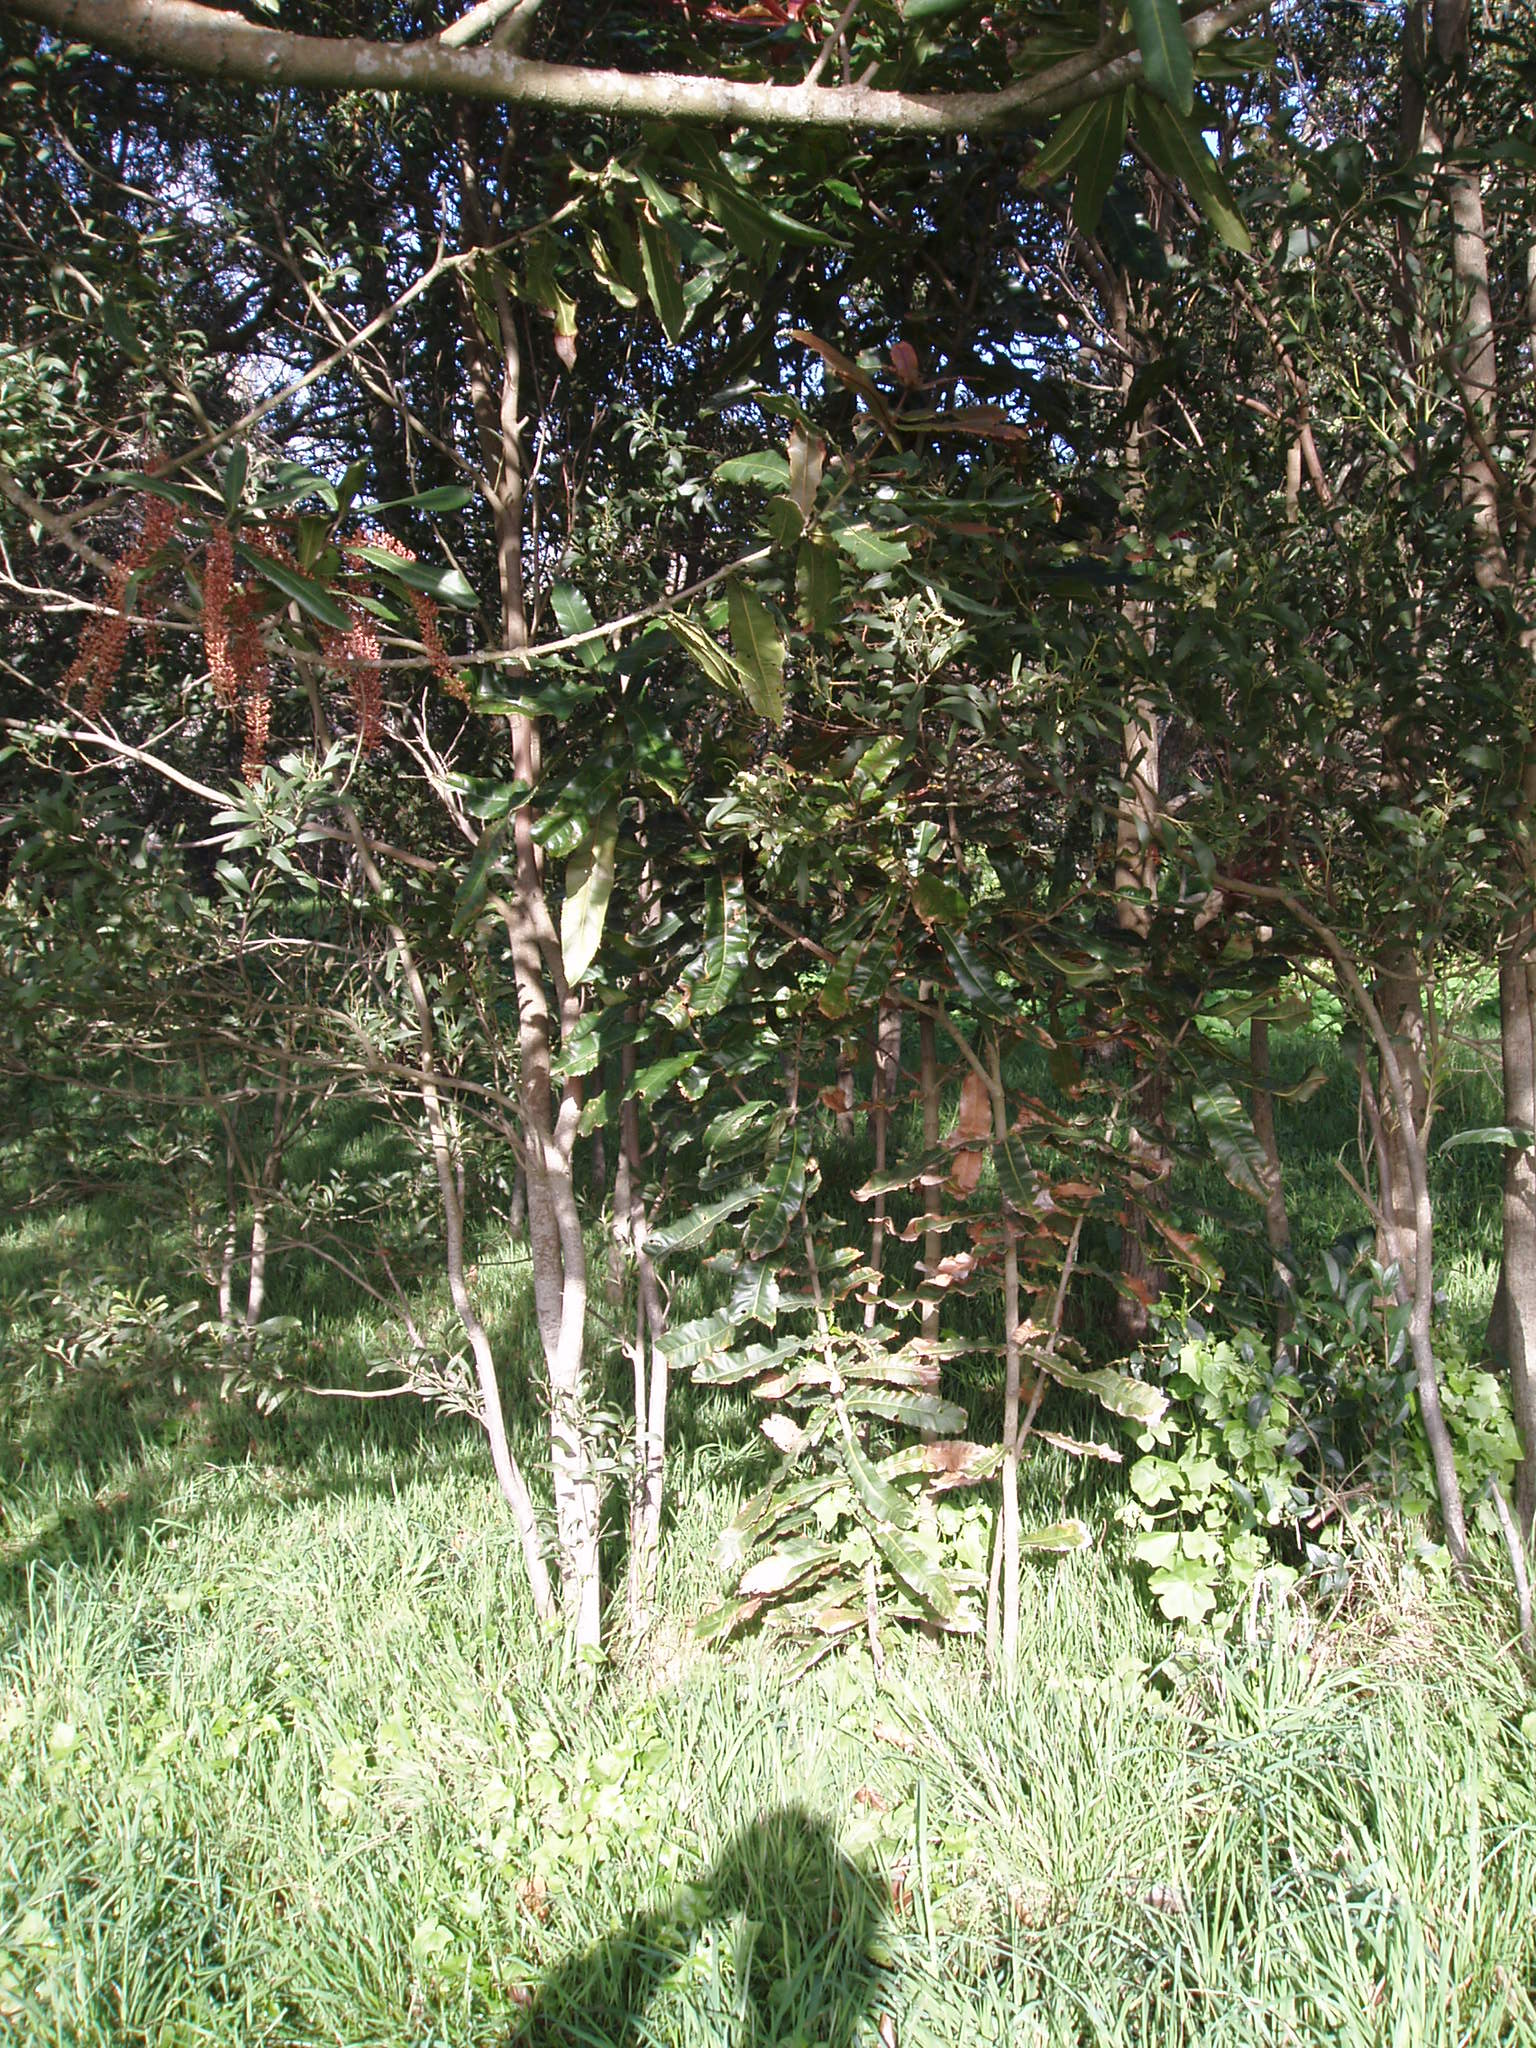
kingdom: Plantae
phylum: Tracheophyta
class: Magnoliopsida
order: Proteales
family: Proteaceae
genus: Macadamia
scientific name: Macadamia tetraphylla
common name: Macadamia nut
